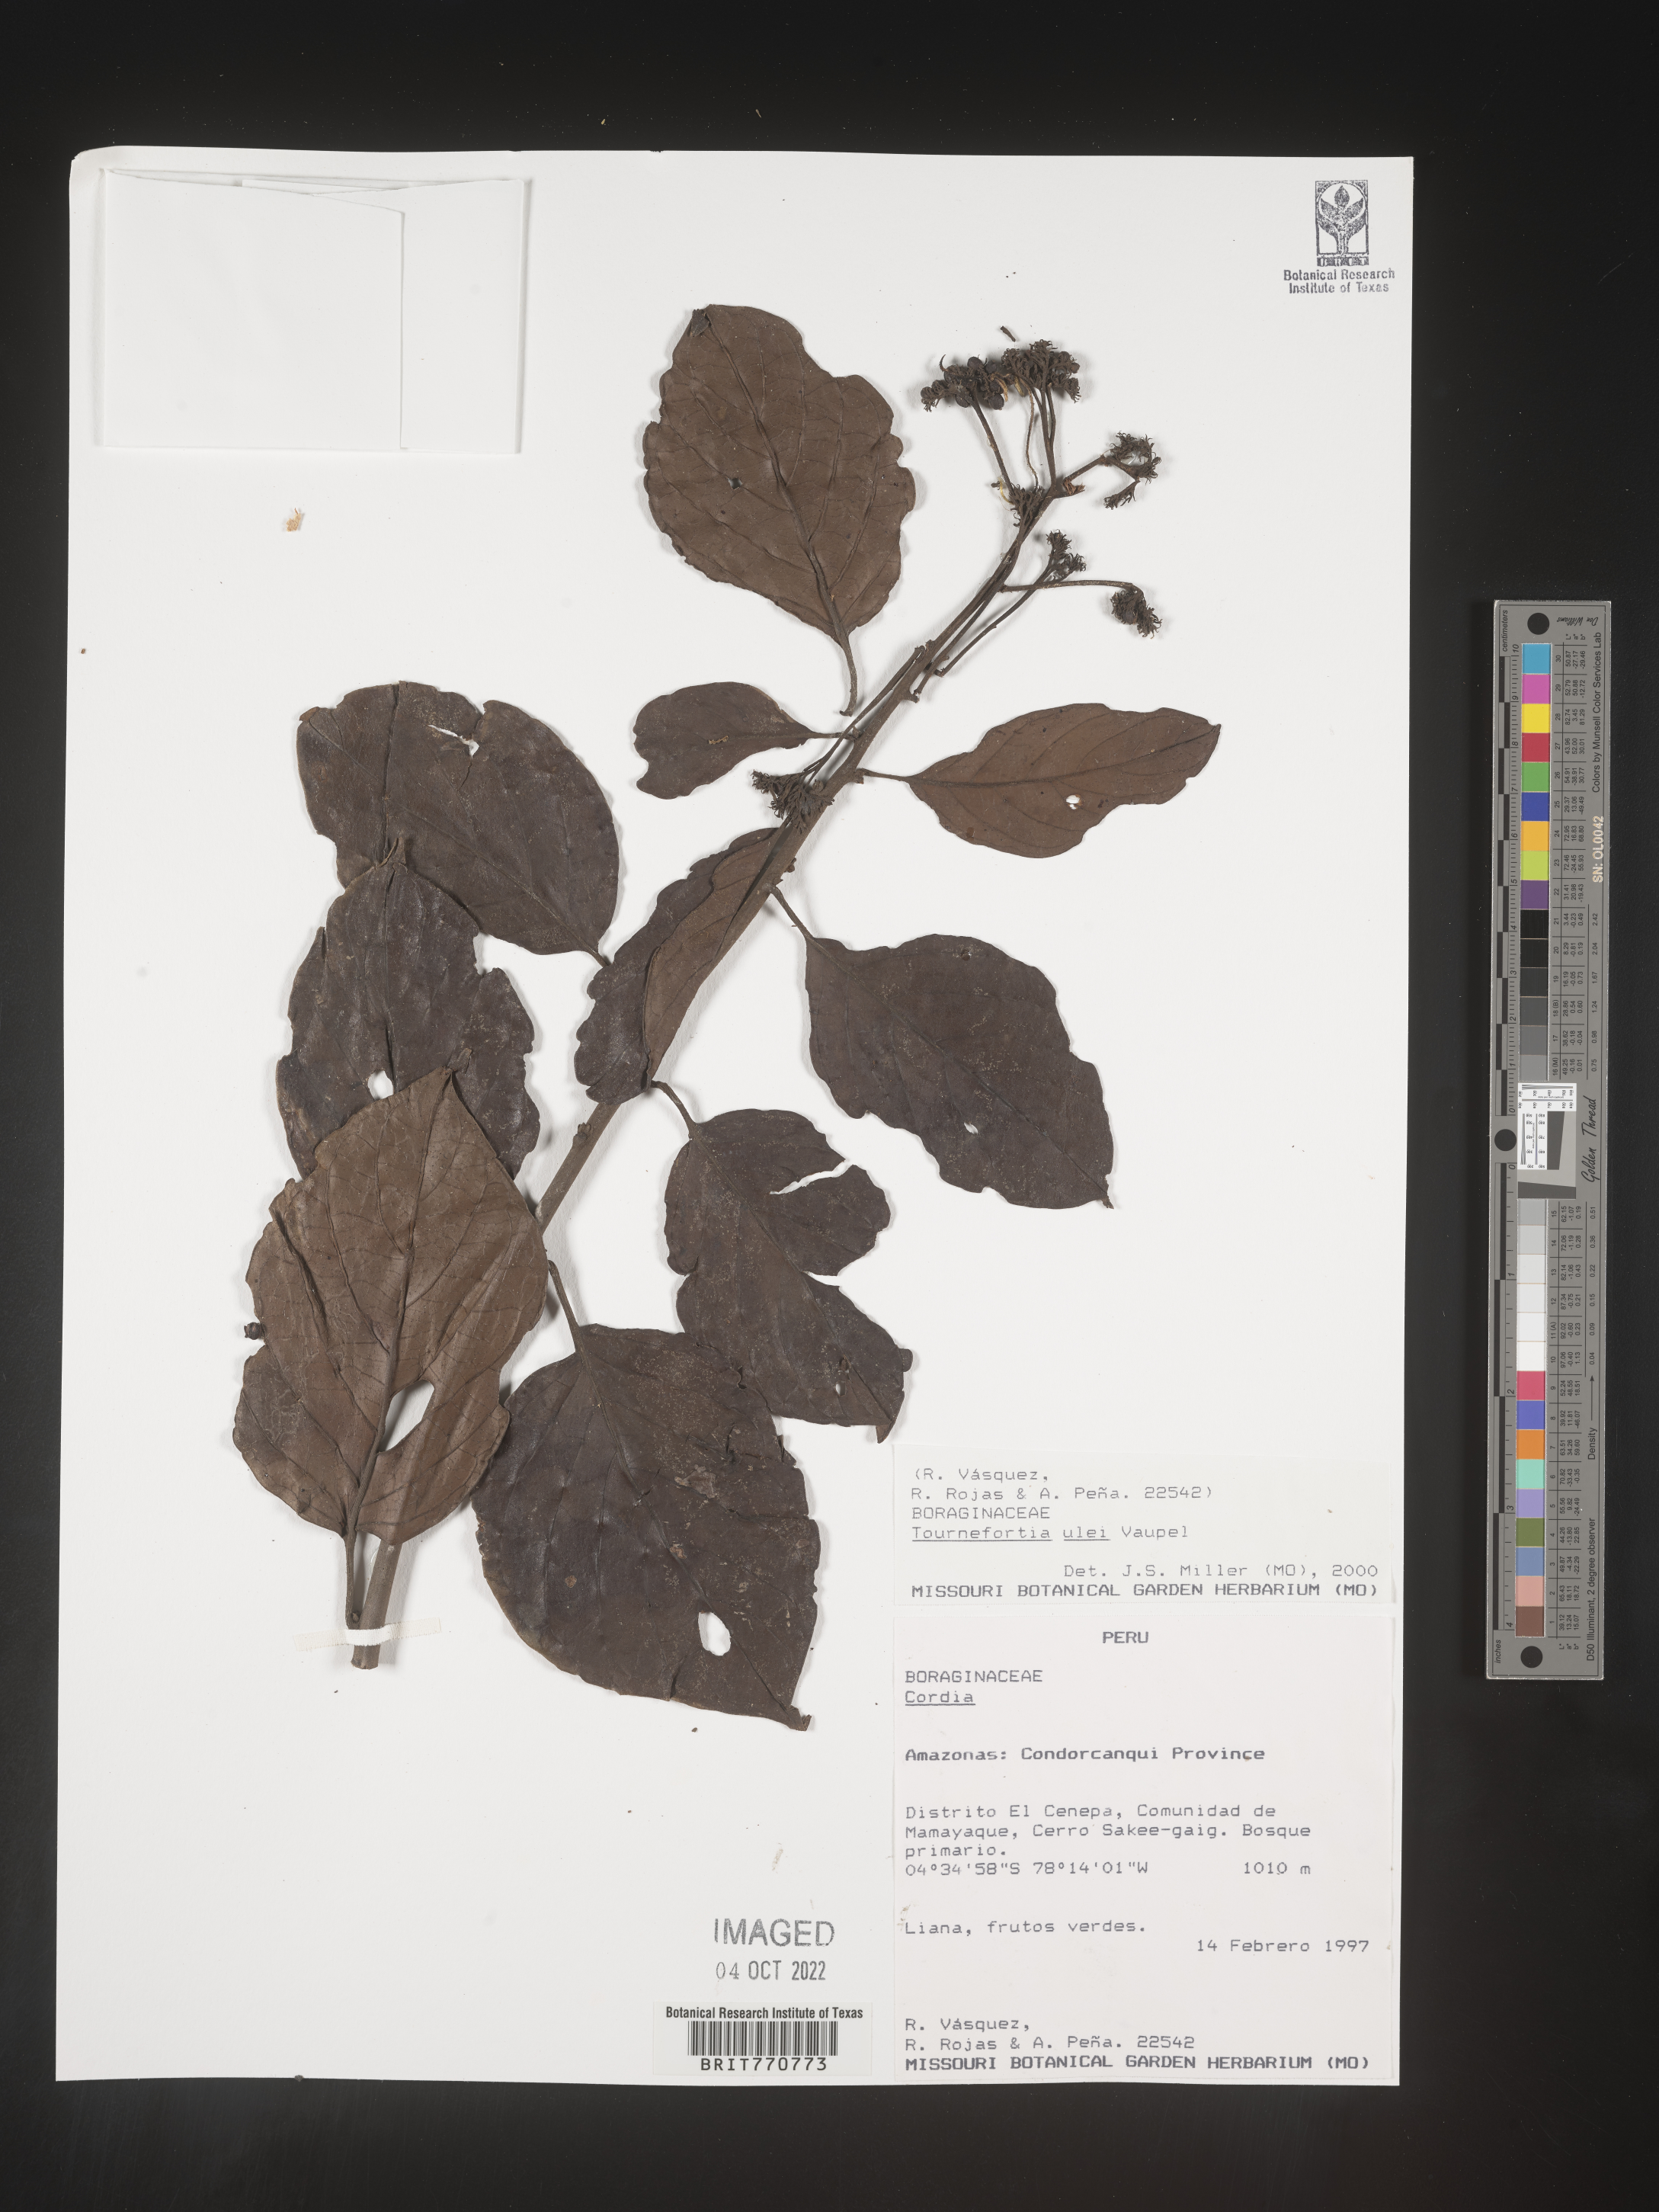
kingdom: Plantae
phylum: Tracheophyta
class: Magnoliopsida
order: Boraginales
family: Heliotropiaceae
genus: Tournefortia
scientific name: Tournefortia
